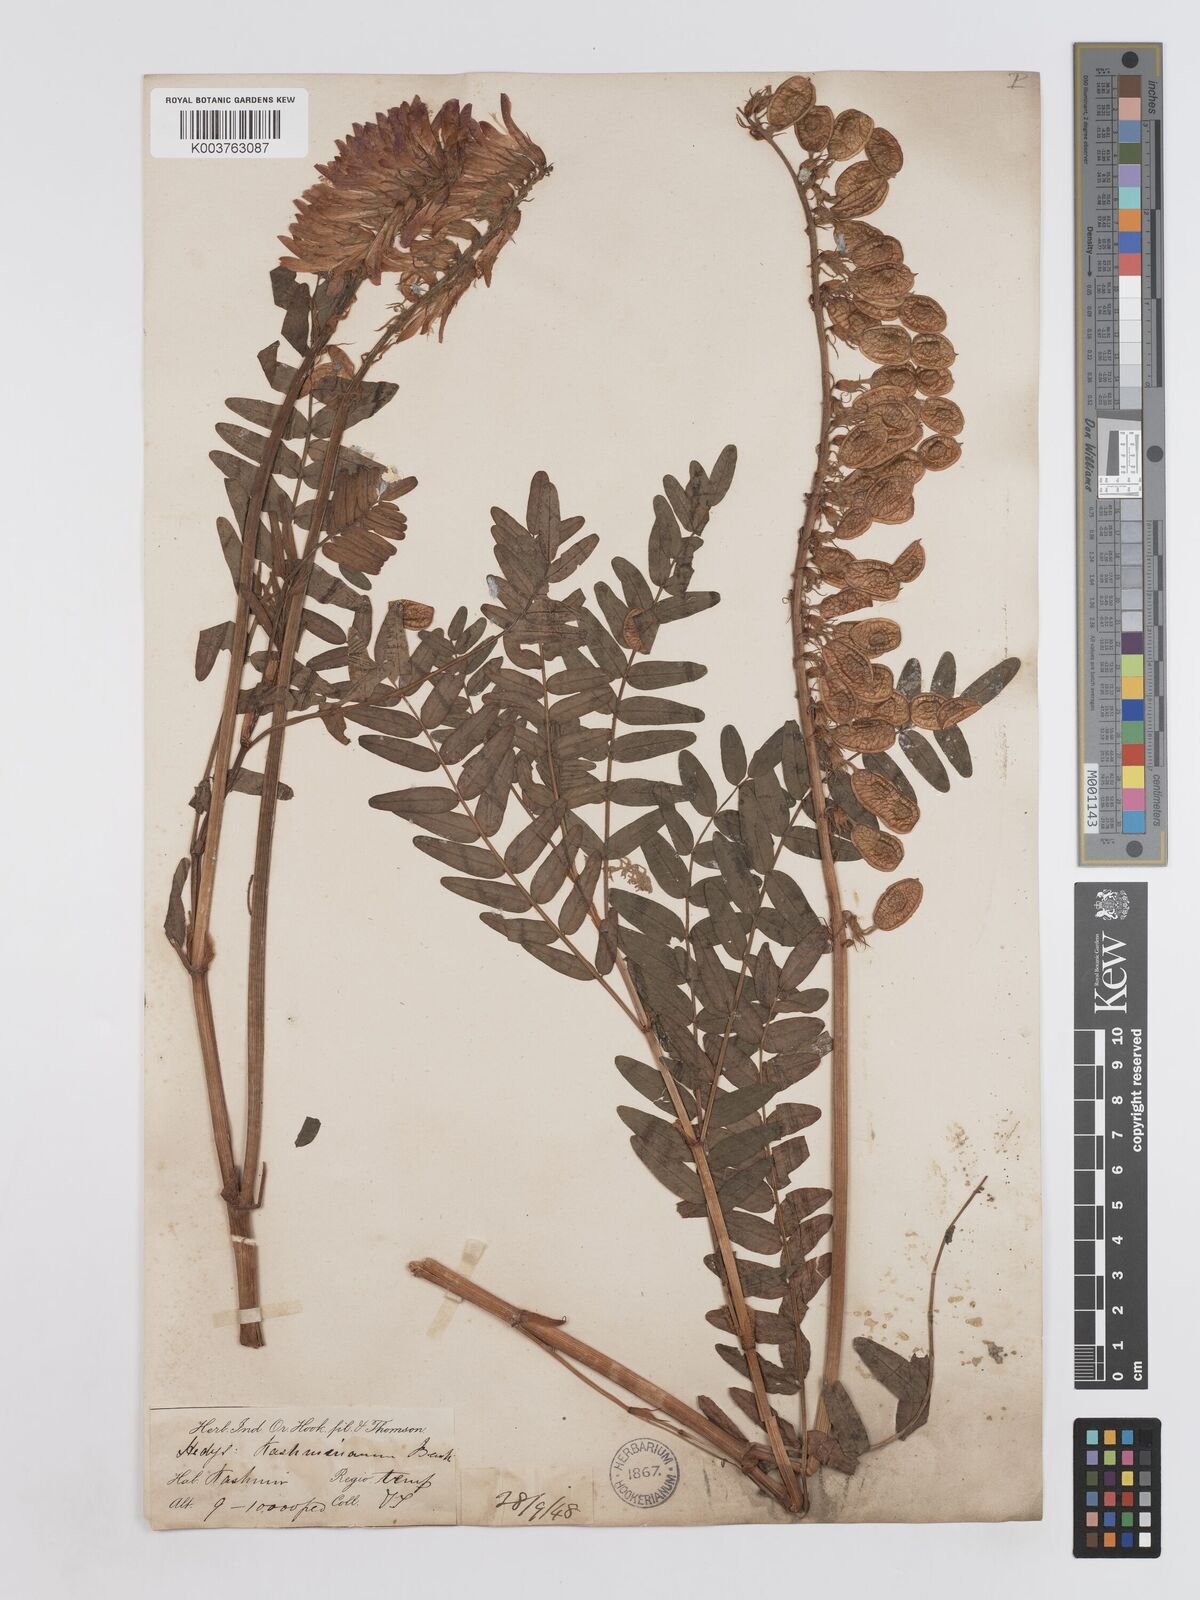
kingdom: Plantae
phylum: Tracheophyta
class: Magnoliopsida
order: Fabales
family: Fabaceae
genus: Hedysarum
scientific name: Hedysarum cachemirianum
